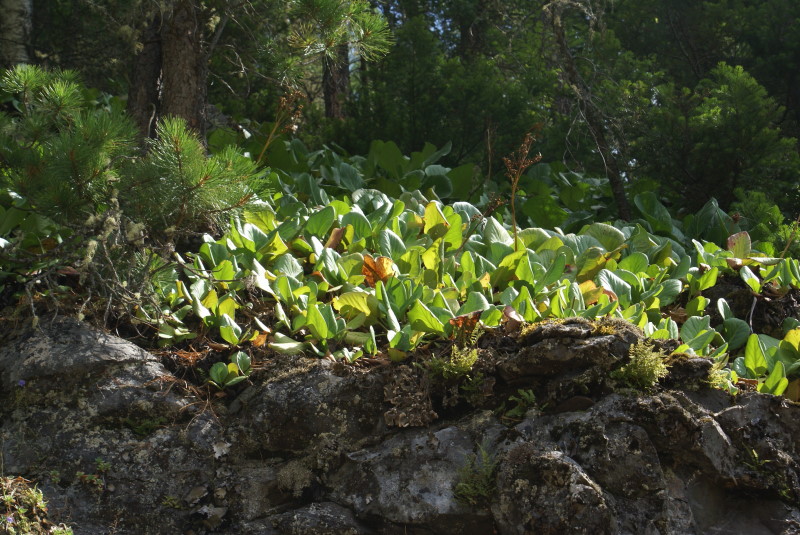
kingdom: Plantae
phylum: Tracheophyta
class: Magnoliopsida
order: Saxifragales
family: Saxifragaceae
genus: Bergenia
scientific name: Bergenia crassifolia
